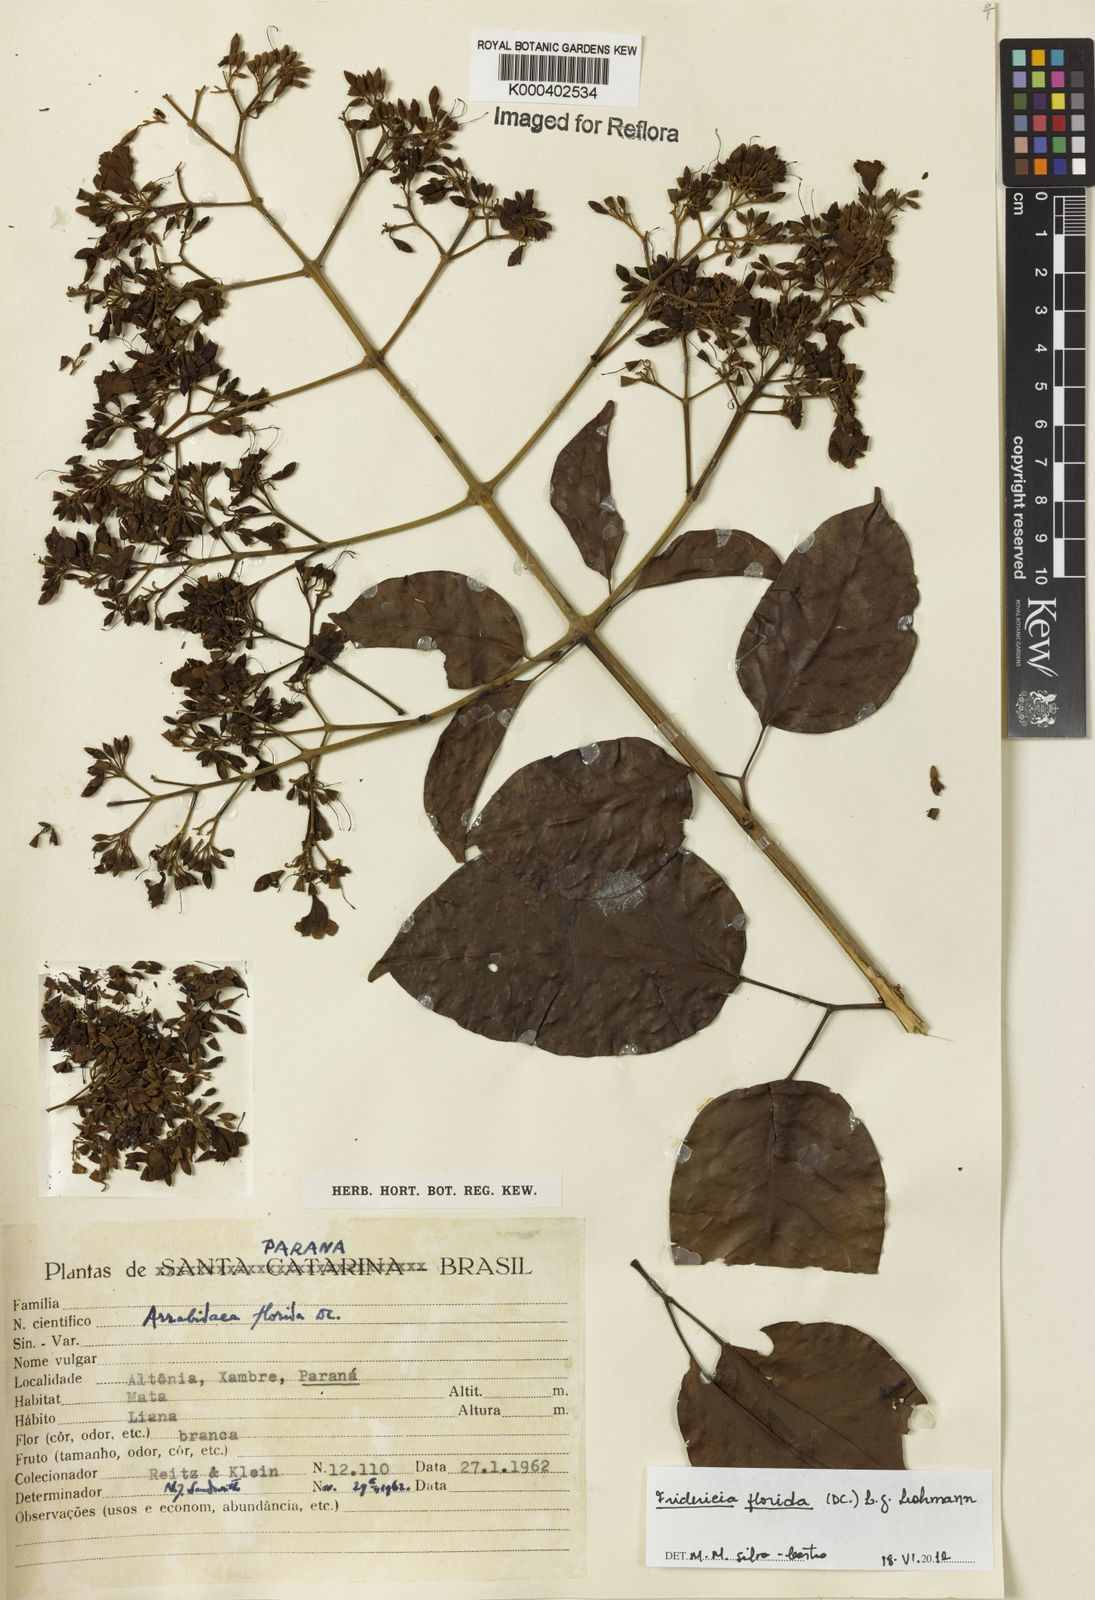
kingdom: Plantae
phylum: Tracheophyta
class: Magnoliopsida
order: Lamiales
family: Bignoniaceae
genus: Fridericia
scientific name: Fridericia florida
